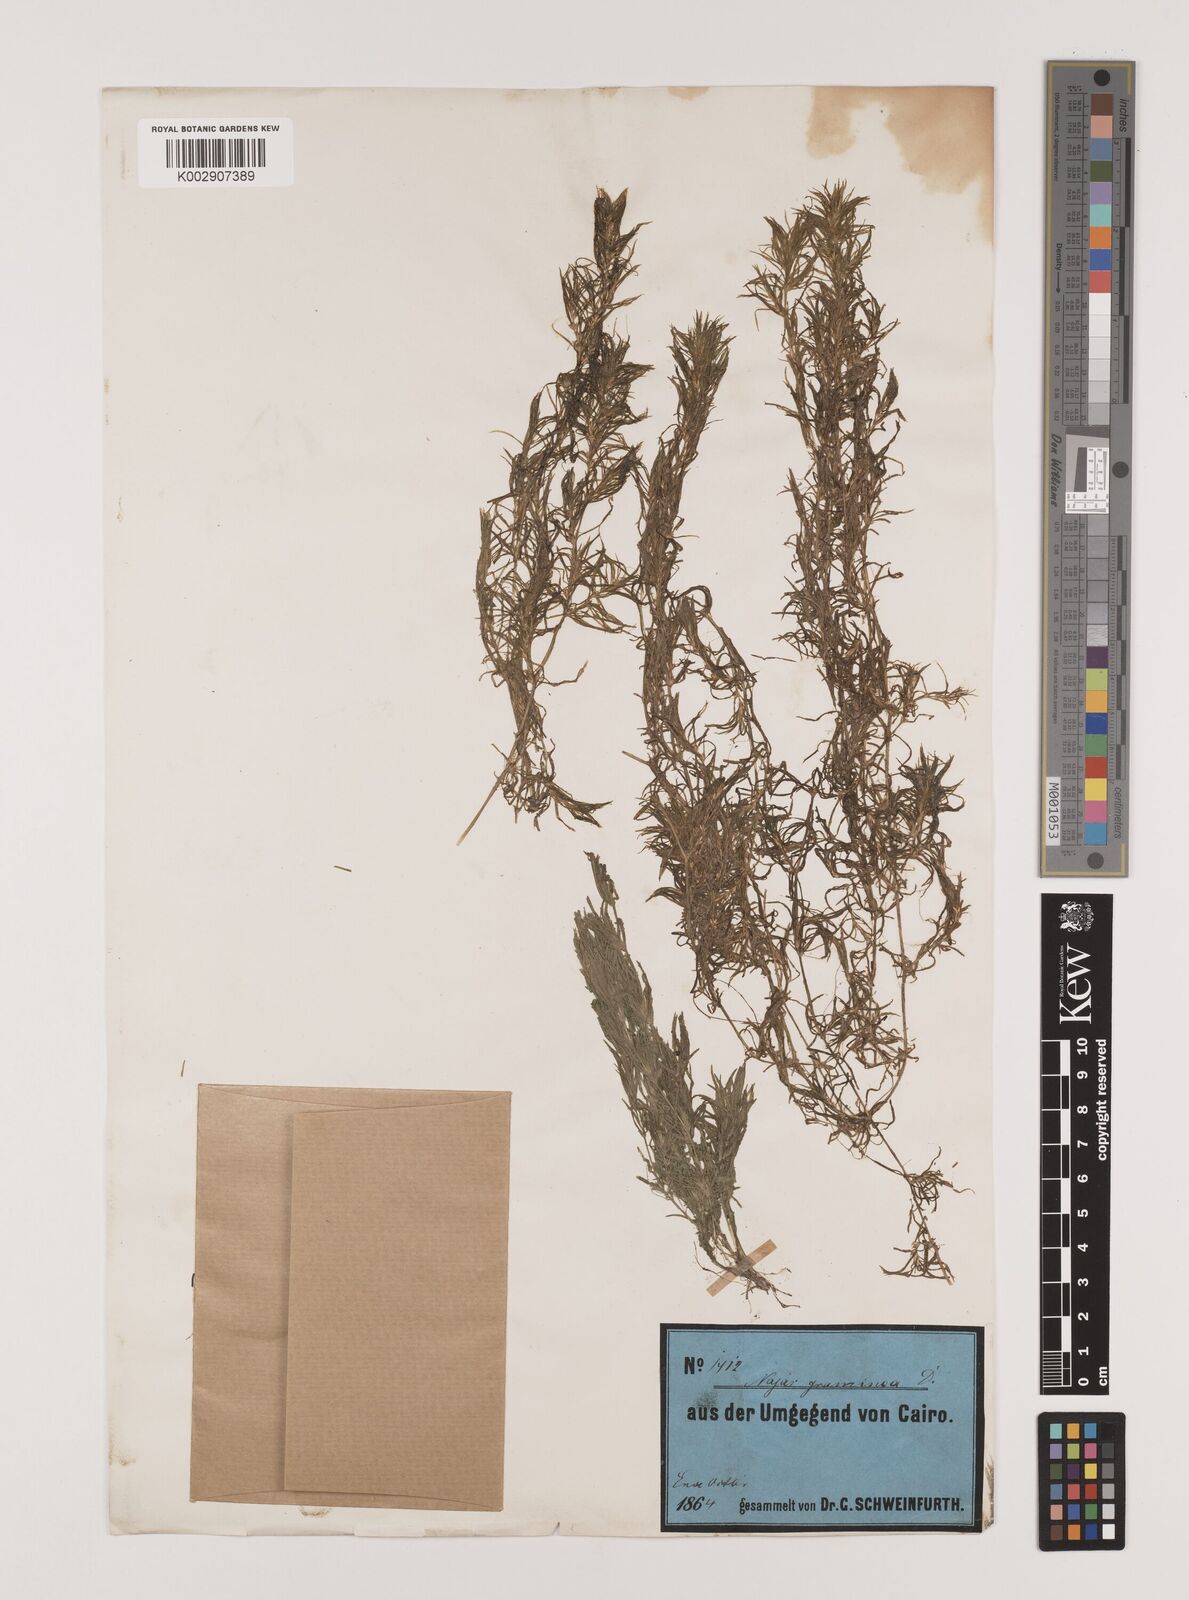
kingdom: Plantae
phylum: Tracheophyta
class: Liliopsida
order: Alismatales
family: Hydrocharitaceae
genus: Najas
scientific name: Najas graminea
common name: Ricefield waternymph
